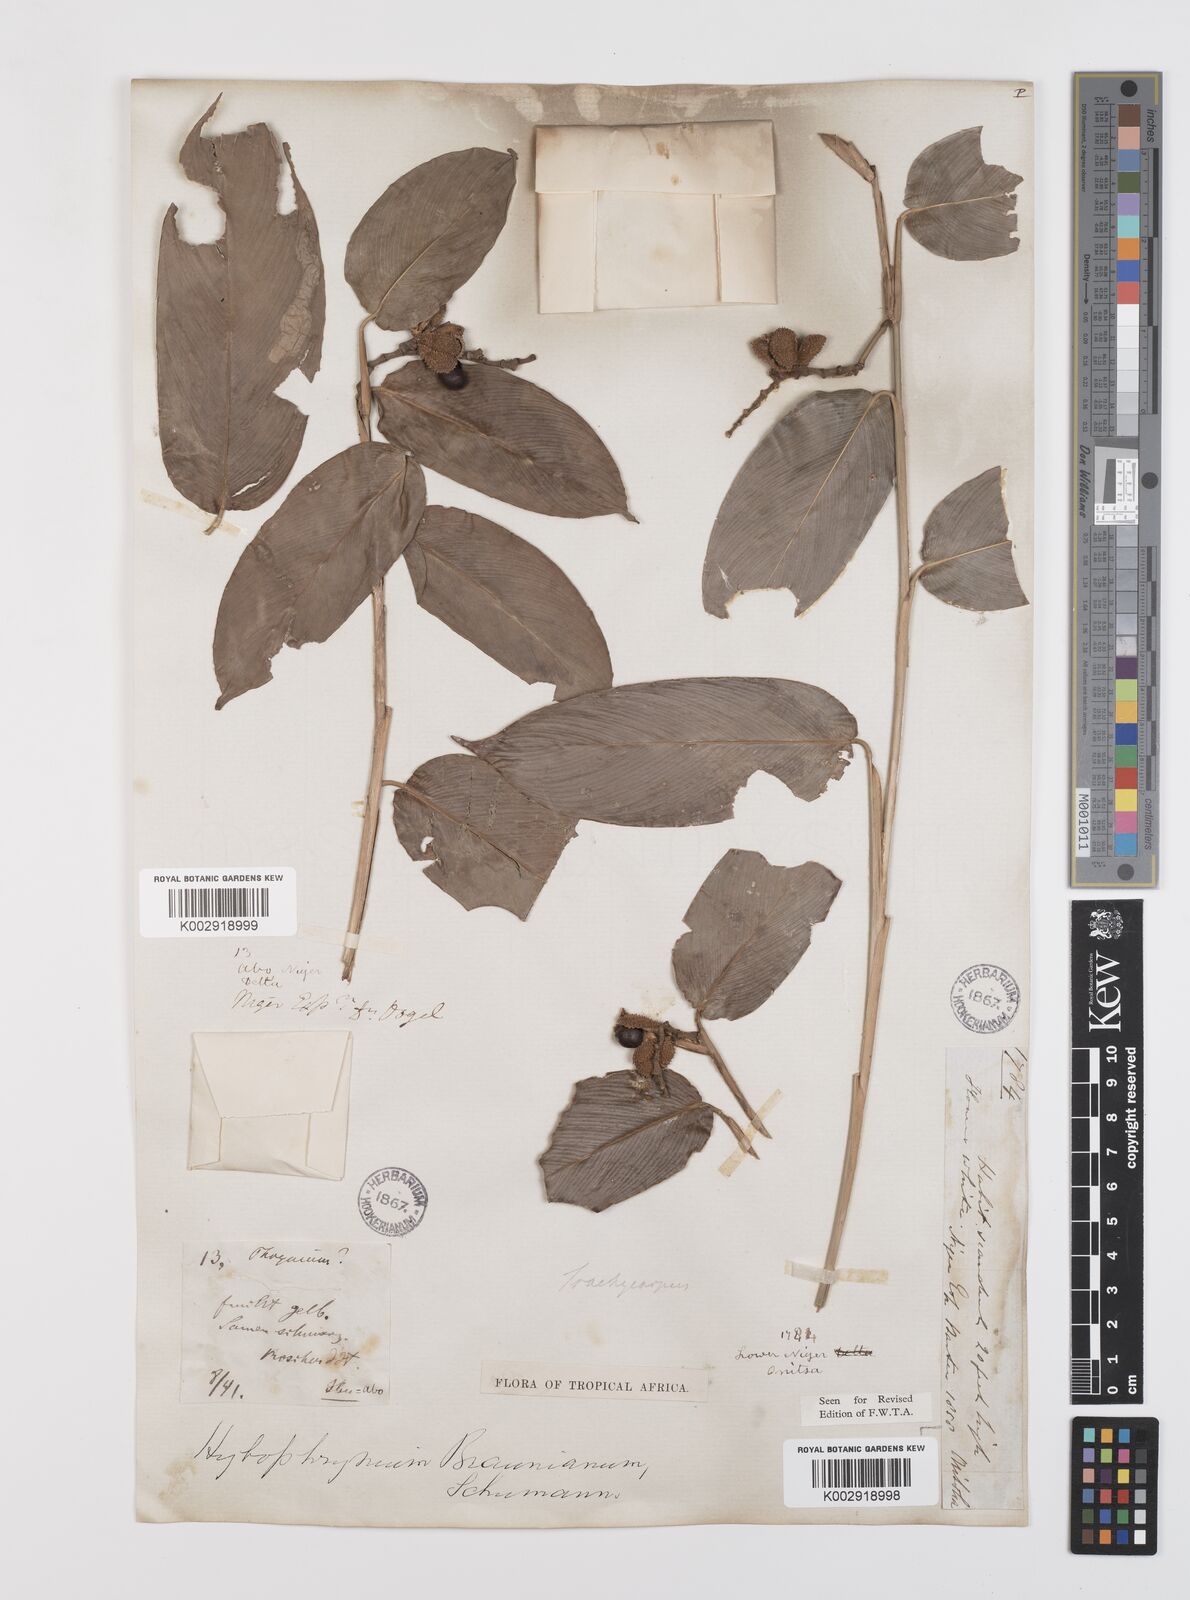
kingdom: Plantae
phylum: Tracheophyta
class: Liliopsida
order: Zingiberales
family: Marantaceae
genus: Trachyphrynium
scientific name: Trachyphrynium braunianum
